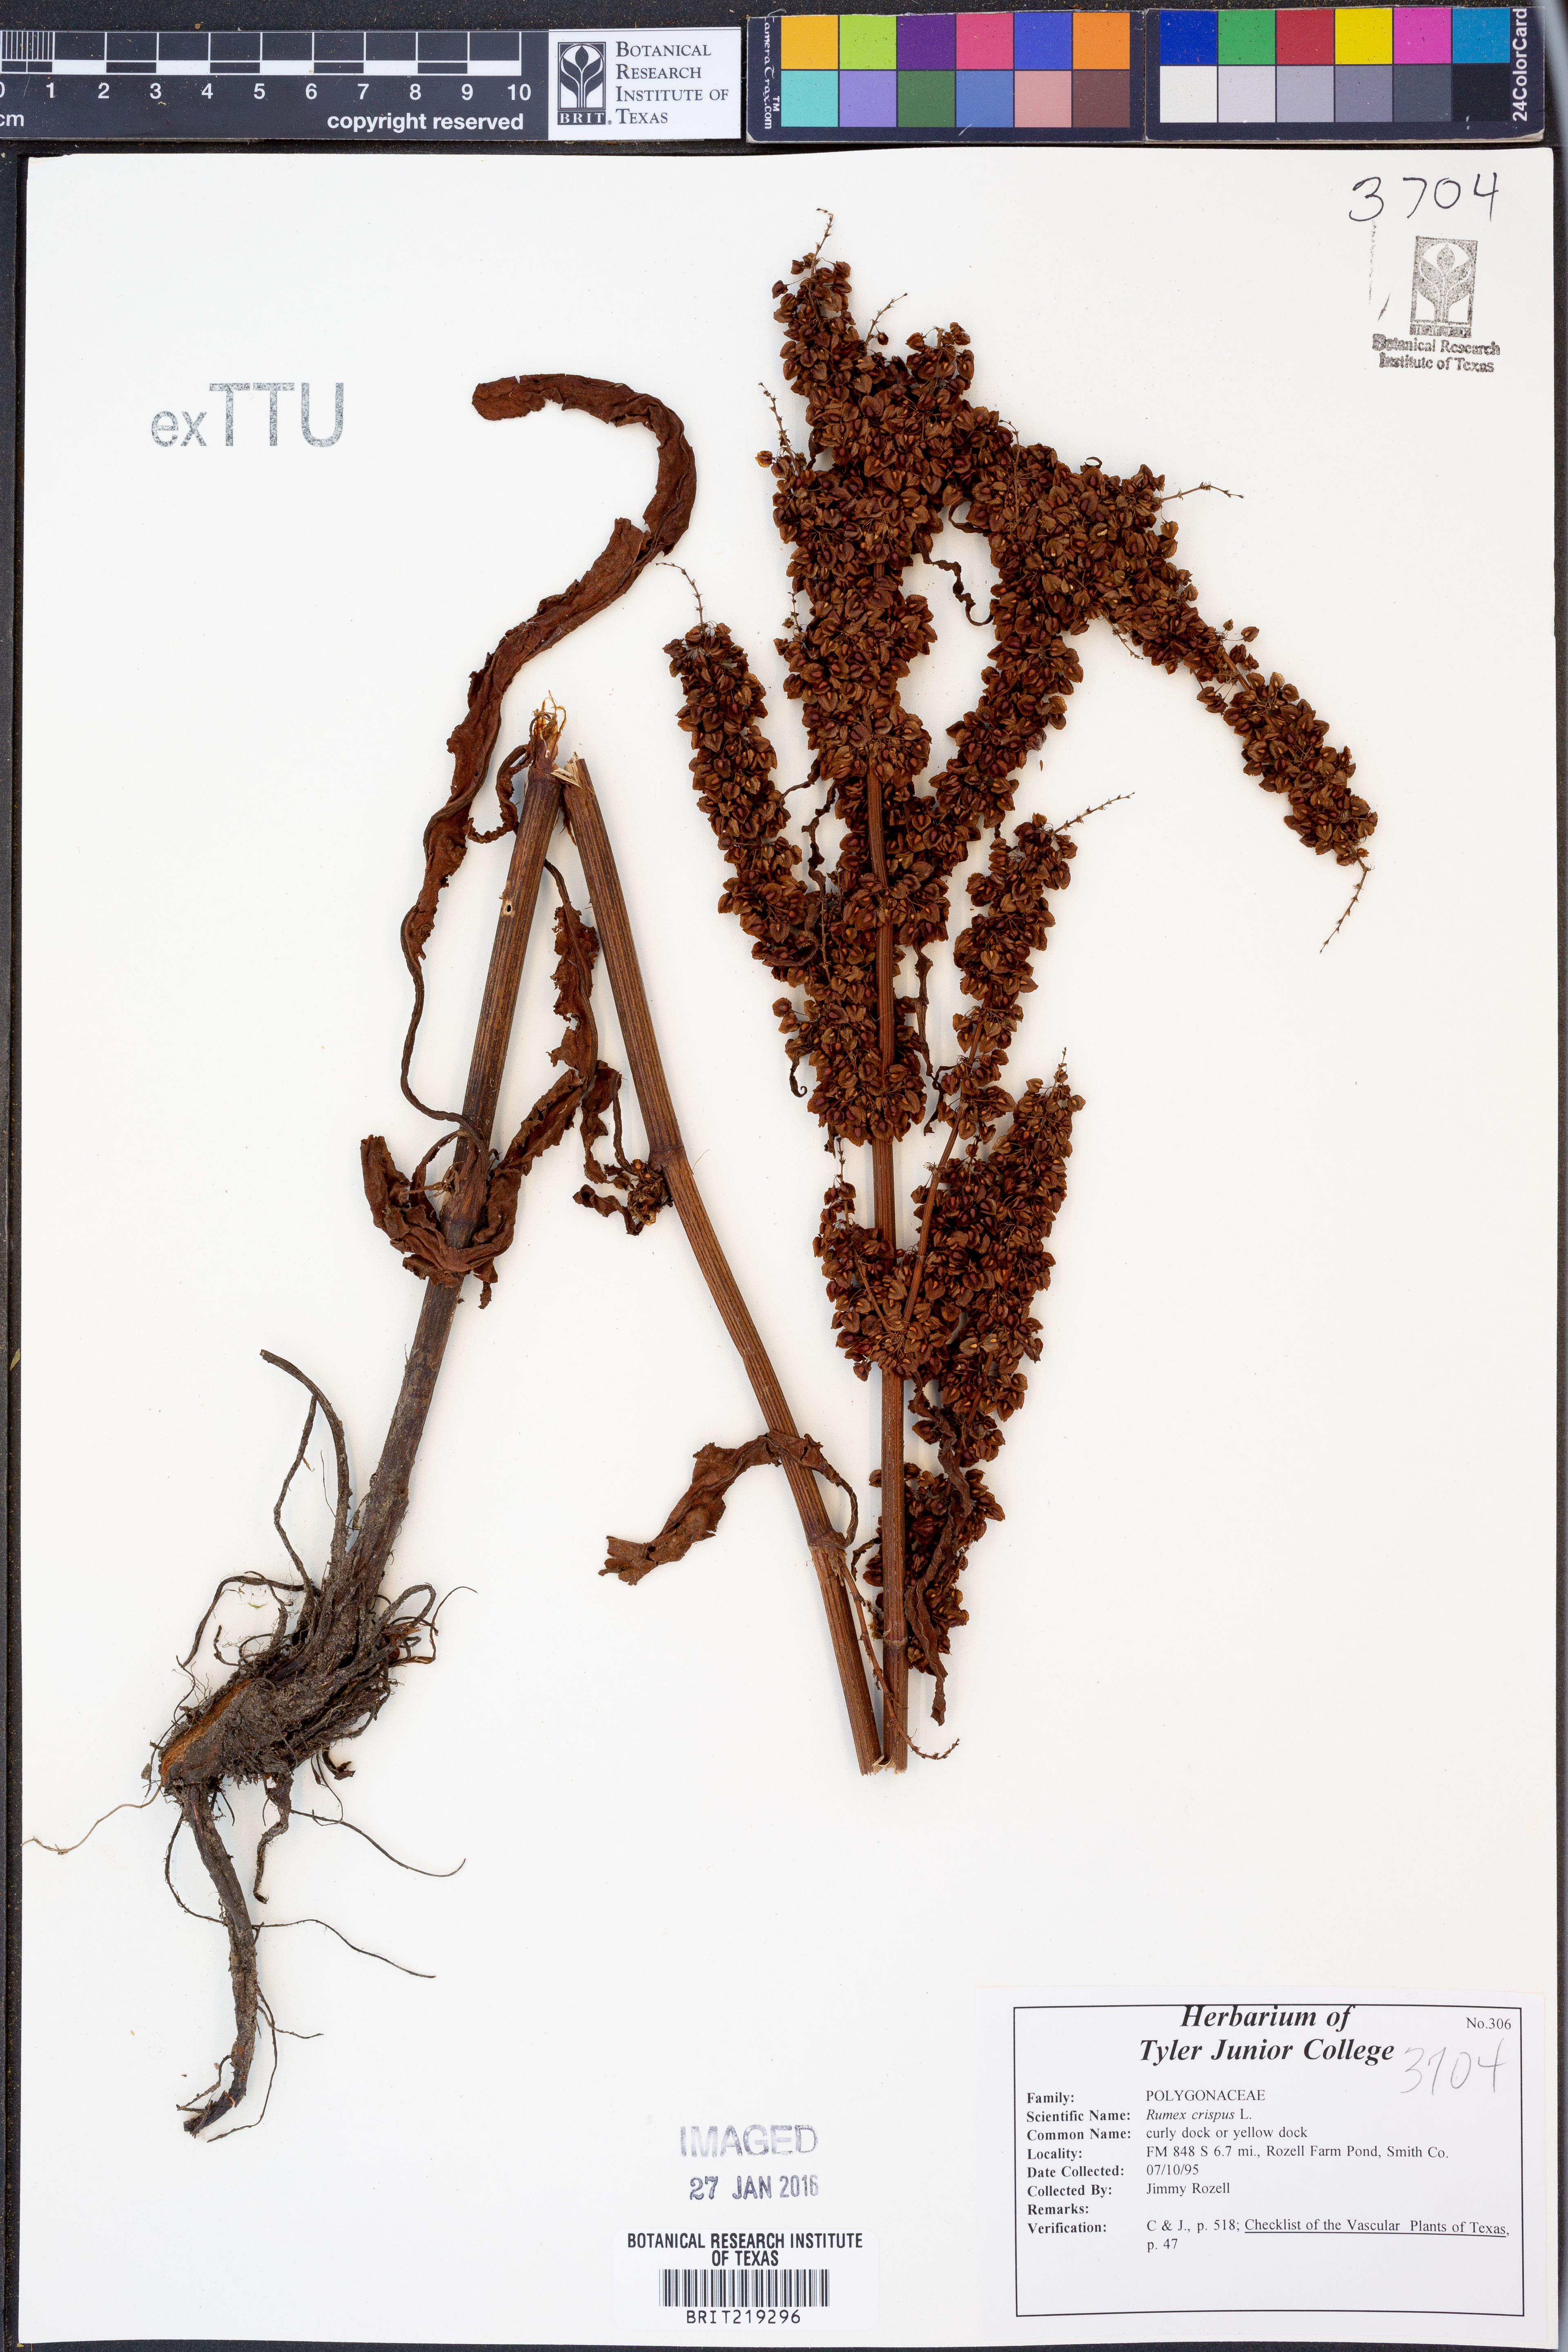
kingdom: Plantae
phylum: Tracheophyta
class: Magnoliopsida
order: Caryophyllales
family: Polygonaceae
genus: Rumex
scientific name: Rumex crispus
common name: Curled dock
